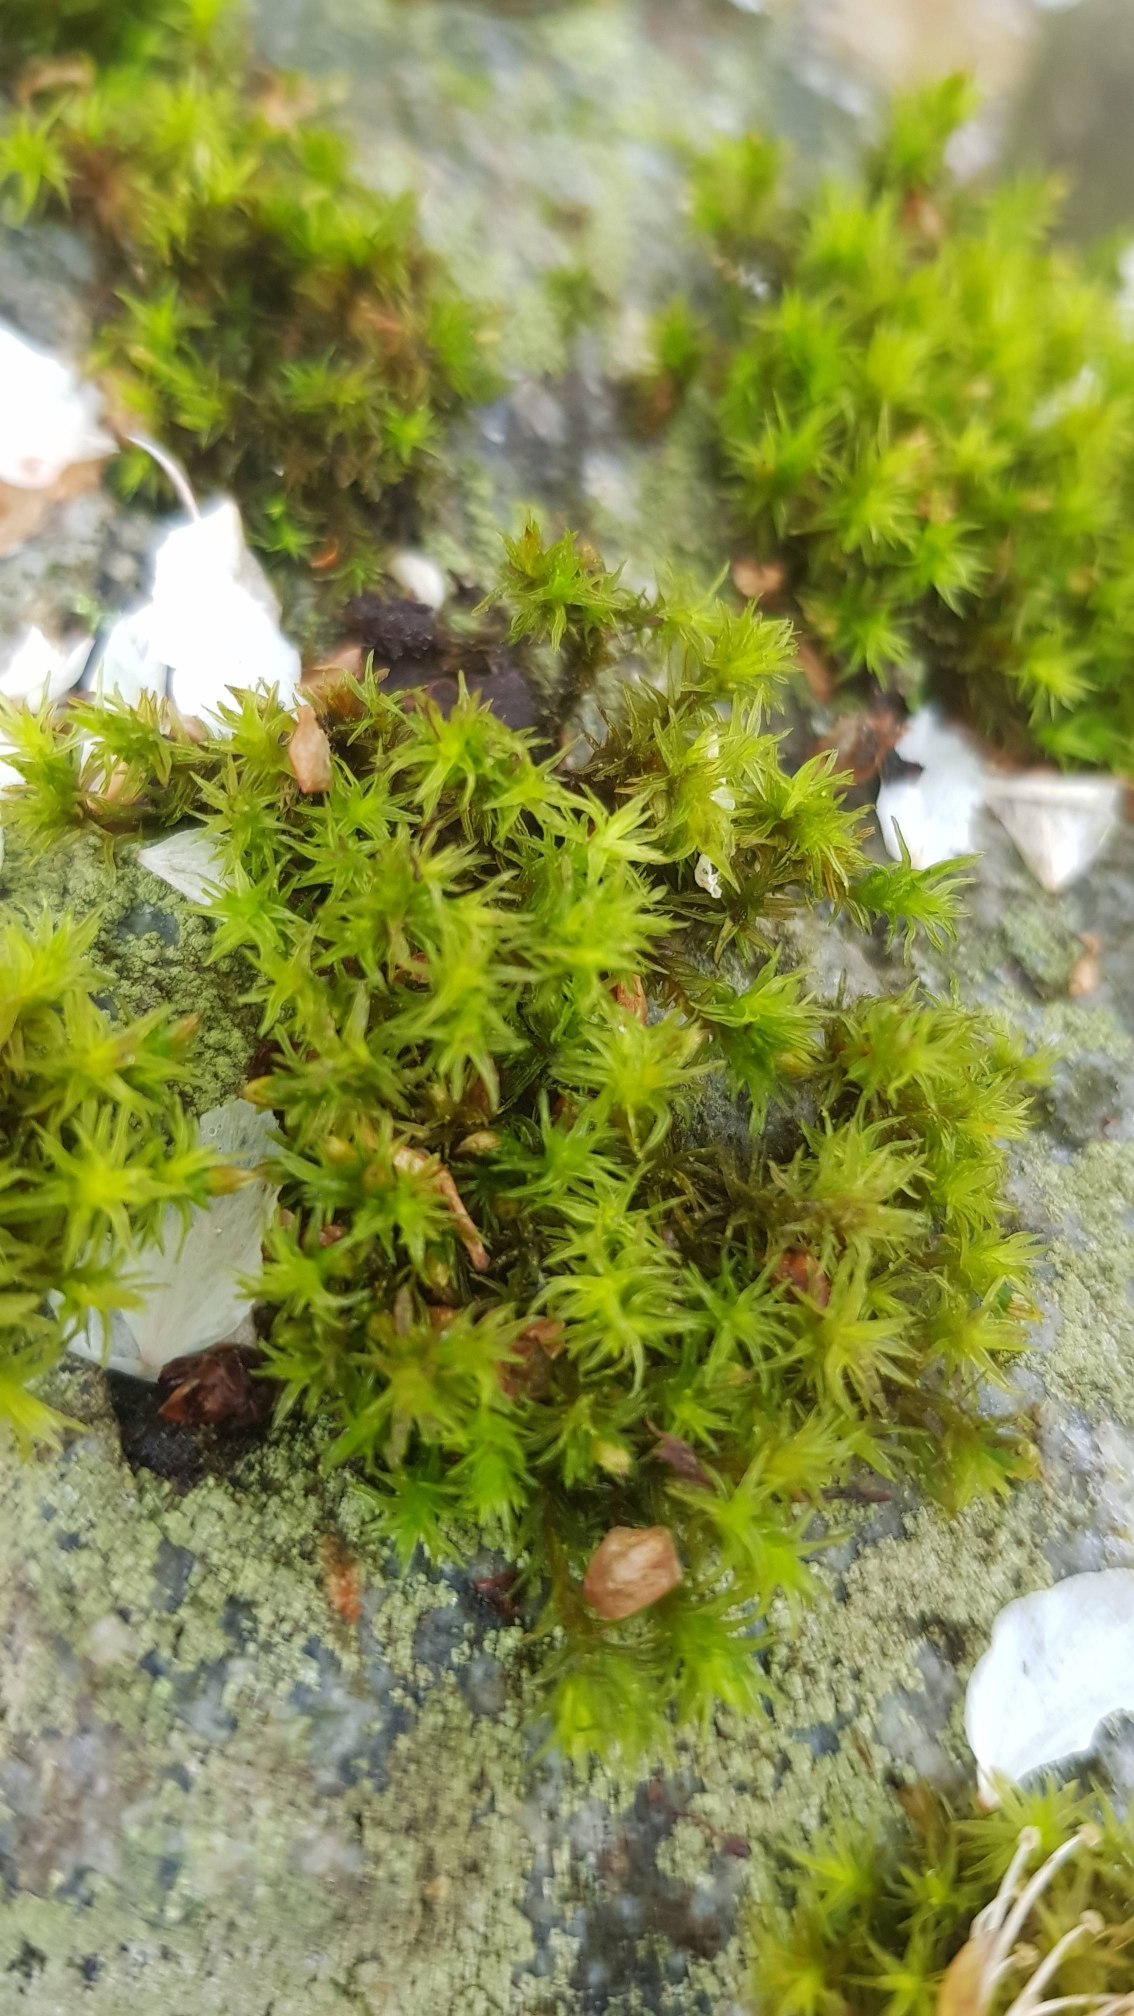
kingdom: Plantae
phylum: Bryophyta
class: Bryopsida
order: Orthotrichales
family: Orthotrichaceae
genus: Lewinskya
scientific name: Lewinskya affinis
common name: Almindelig furehætte
